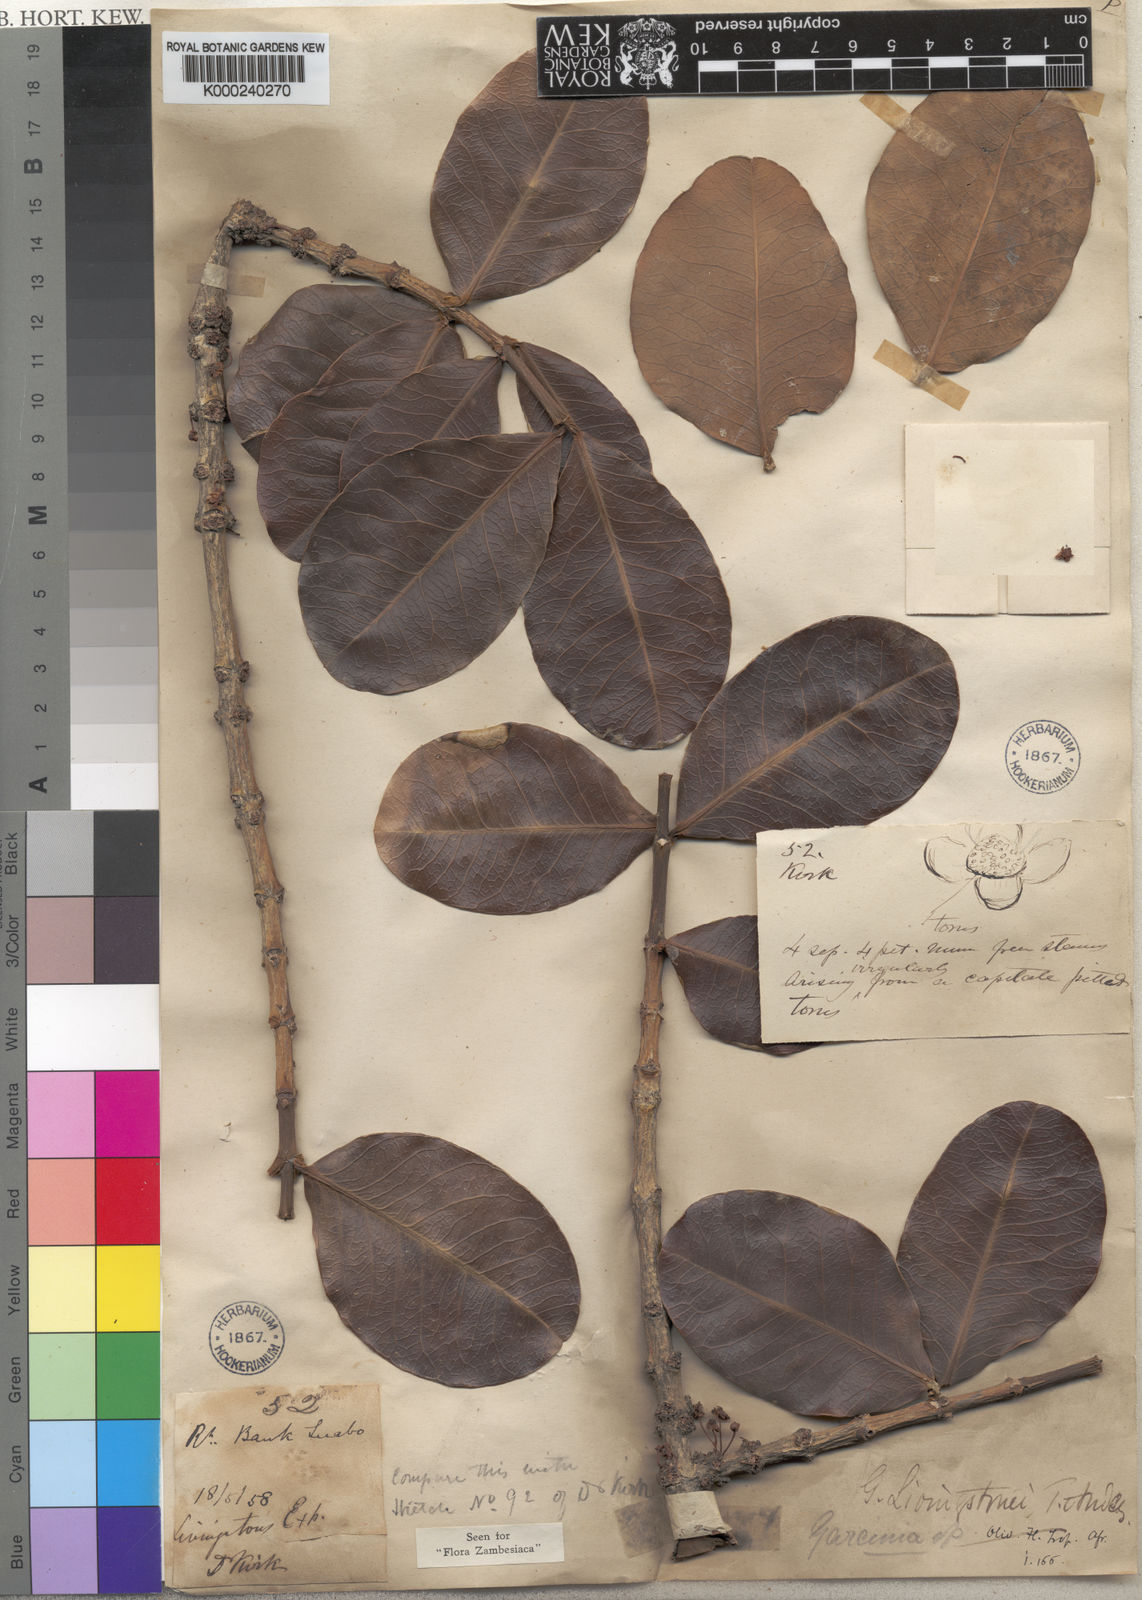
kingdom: Plantae
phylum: Tracheophyta
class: Magnoliopsida
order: Malpighiales
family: Clusiaceae
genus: Garcinia
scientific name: Garcinia livingstonei
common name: African mangosteen
